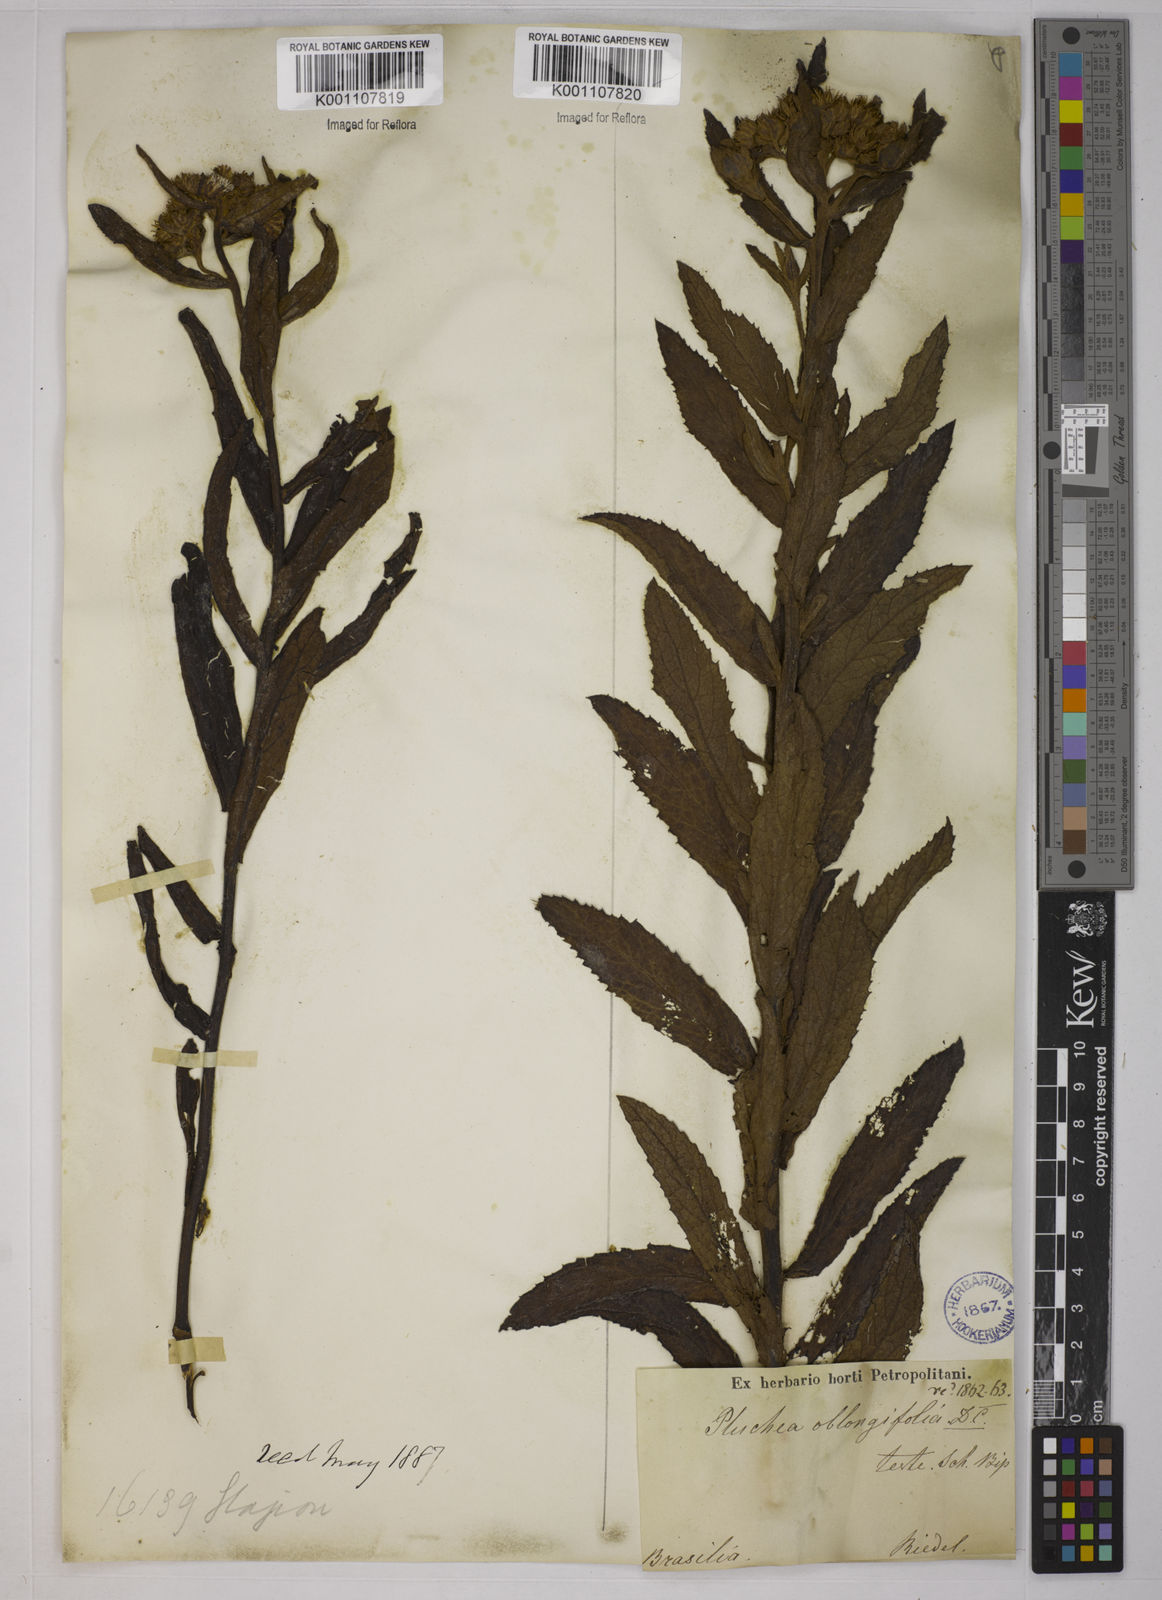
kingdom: Plantae
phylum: Tracheophyta
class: Magnoliopsida
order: Asterales
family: Asteraceae
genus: Pluchea
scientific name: Pluchea oblongifolia
